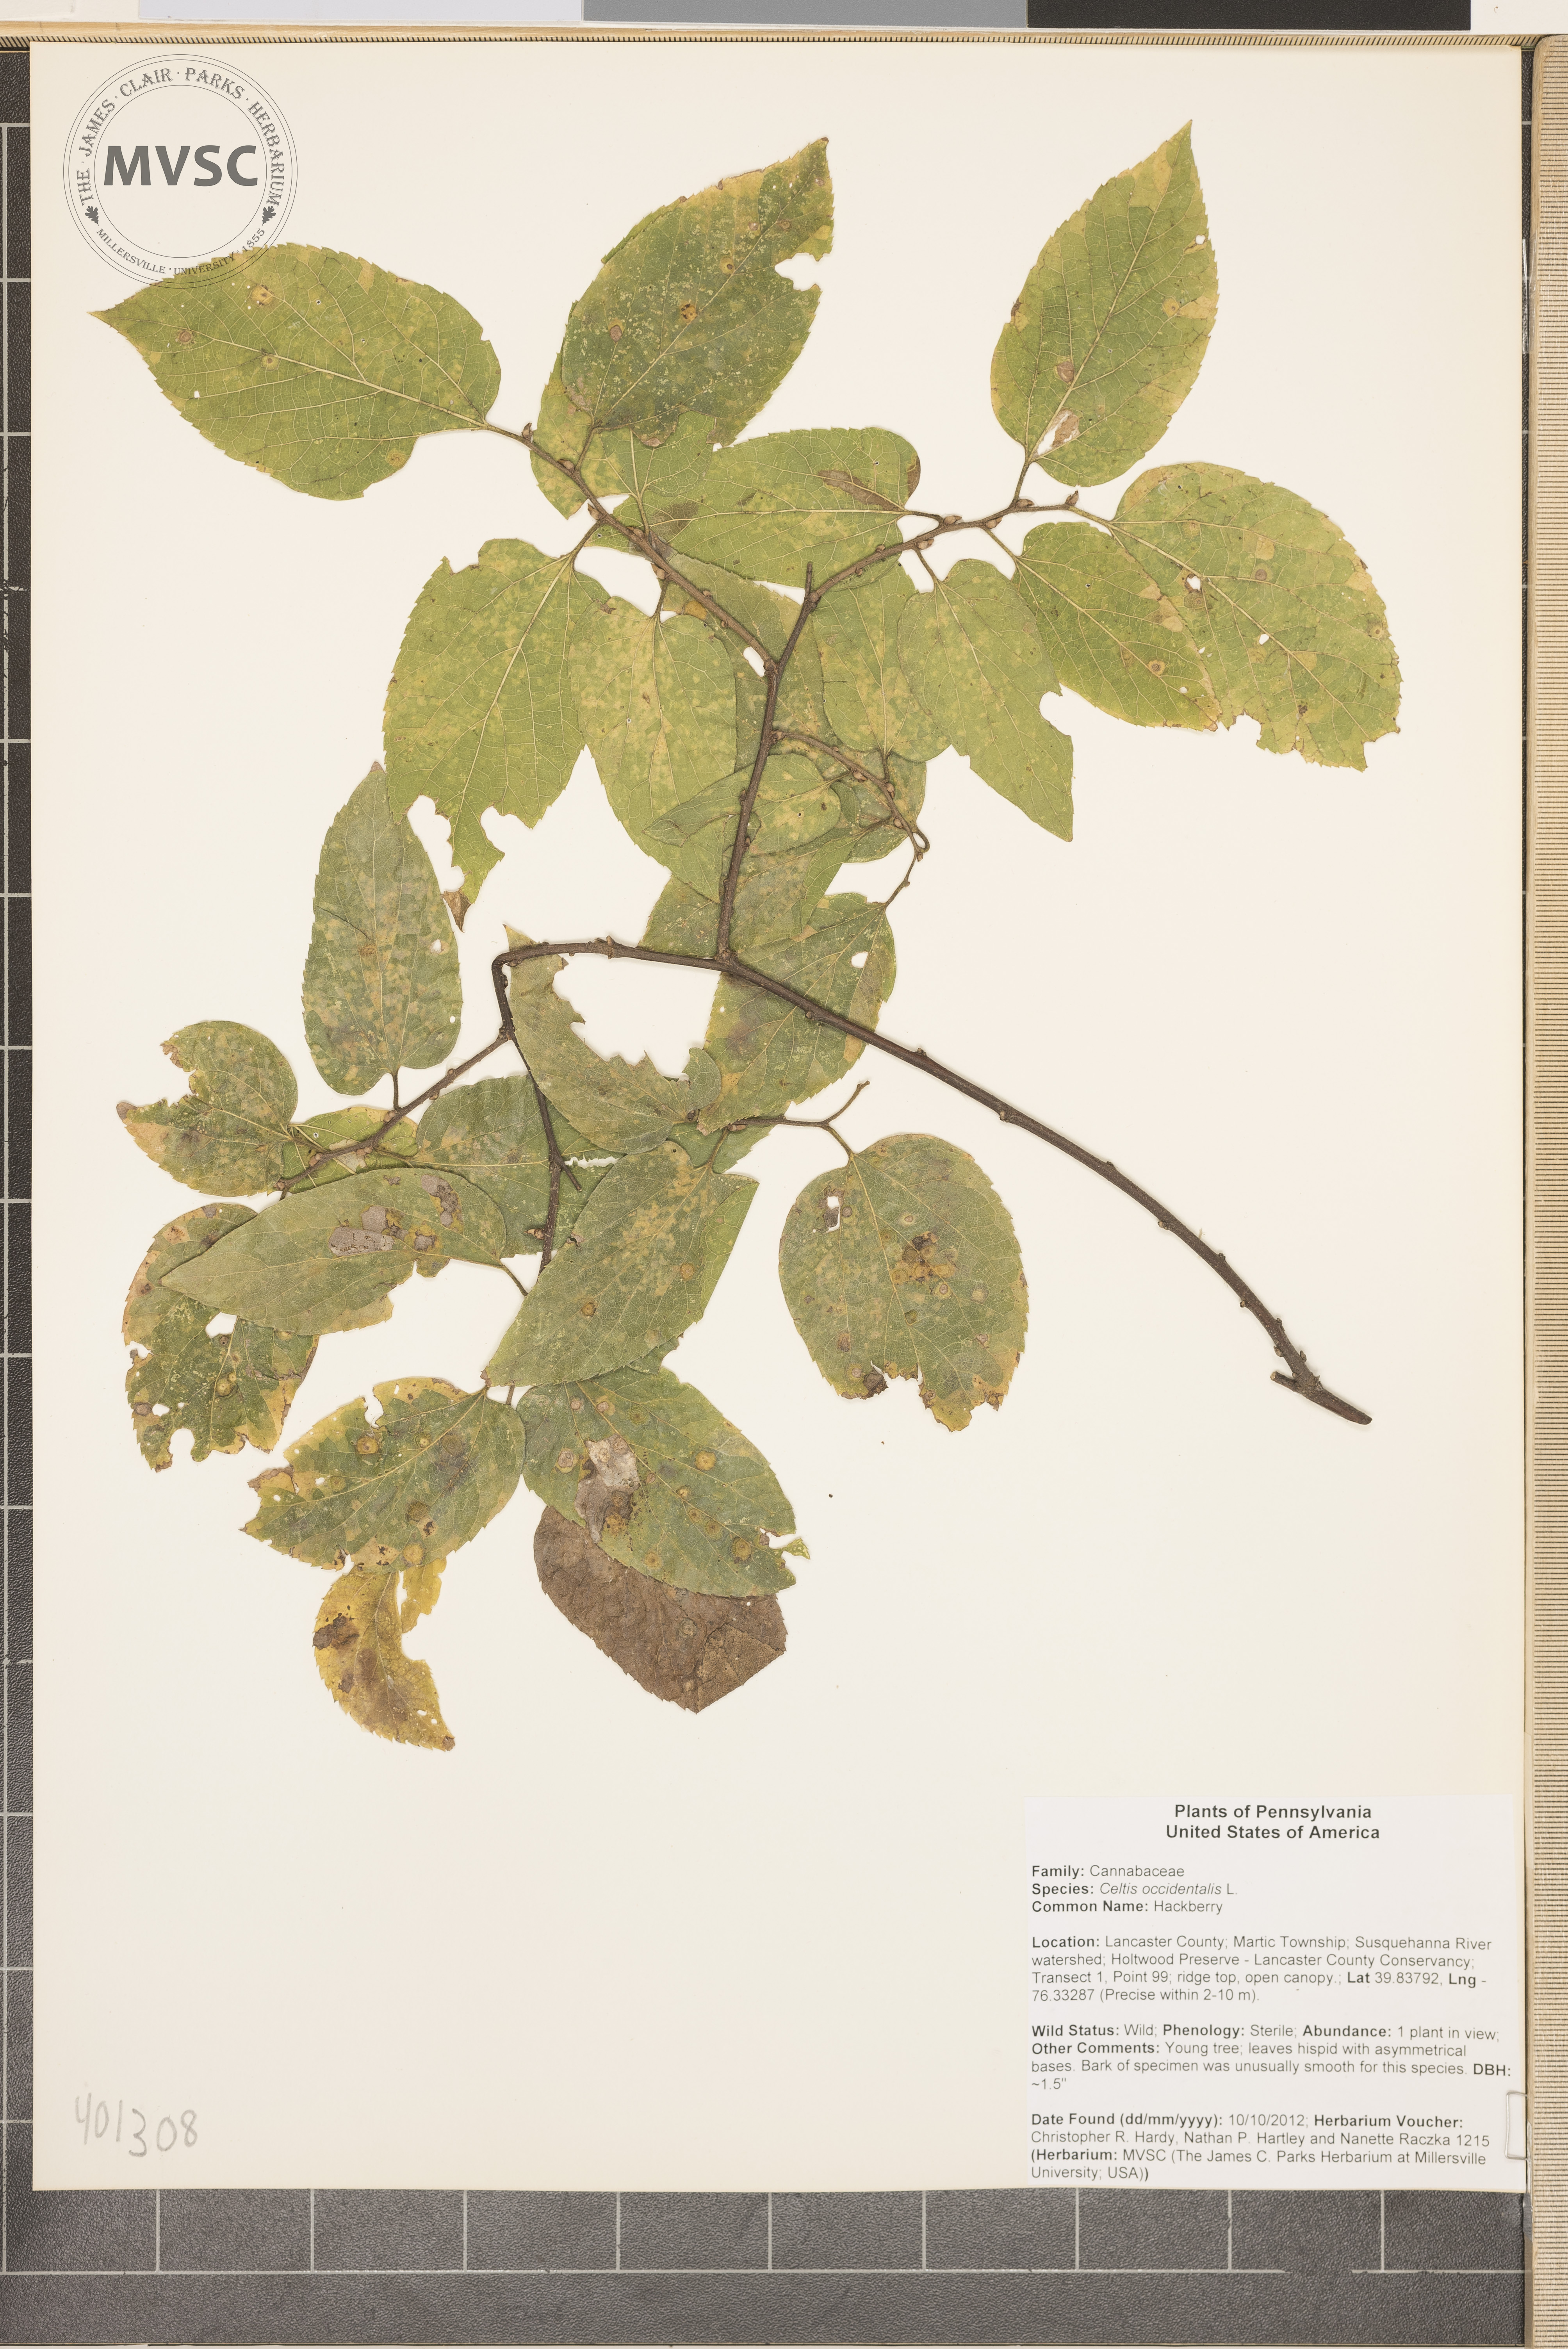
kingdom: Plantae
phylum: Tracheophyta
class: Magnoliopsida
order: Rosales
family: Cannabaceae
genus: Celtis
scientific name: Celtis occidentalis
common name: Hackberry
